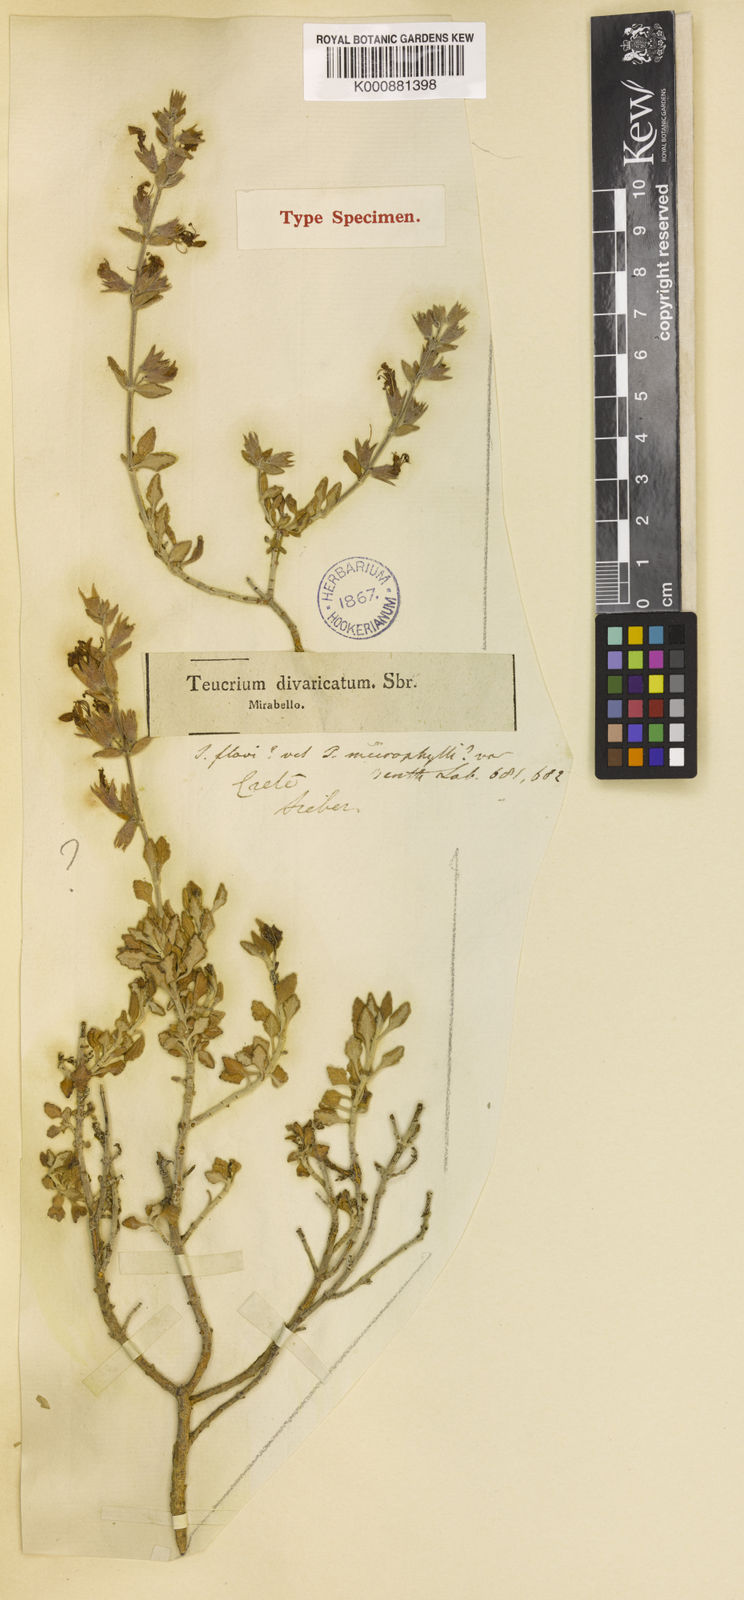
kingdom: Plantae
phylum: Tracheophyta
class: Magnoliopsida
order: Lamiales
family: Lamiaceae
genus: Teucrium
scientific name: Teucrium
